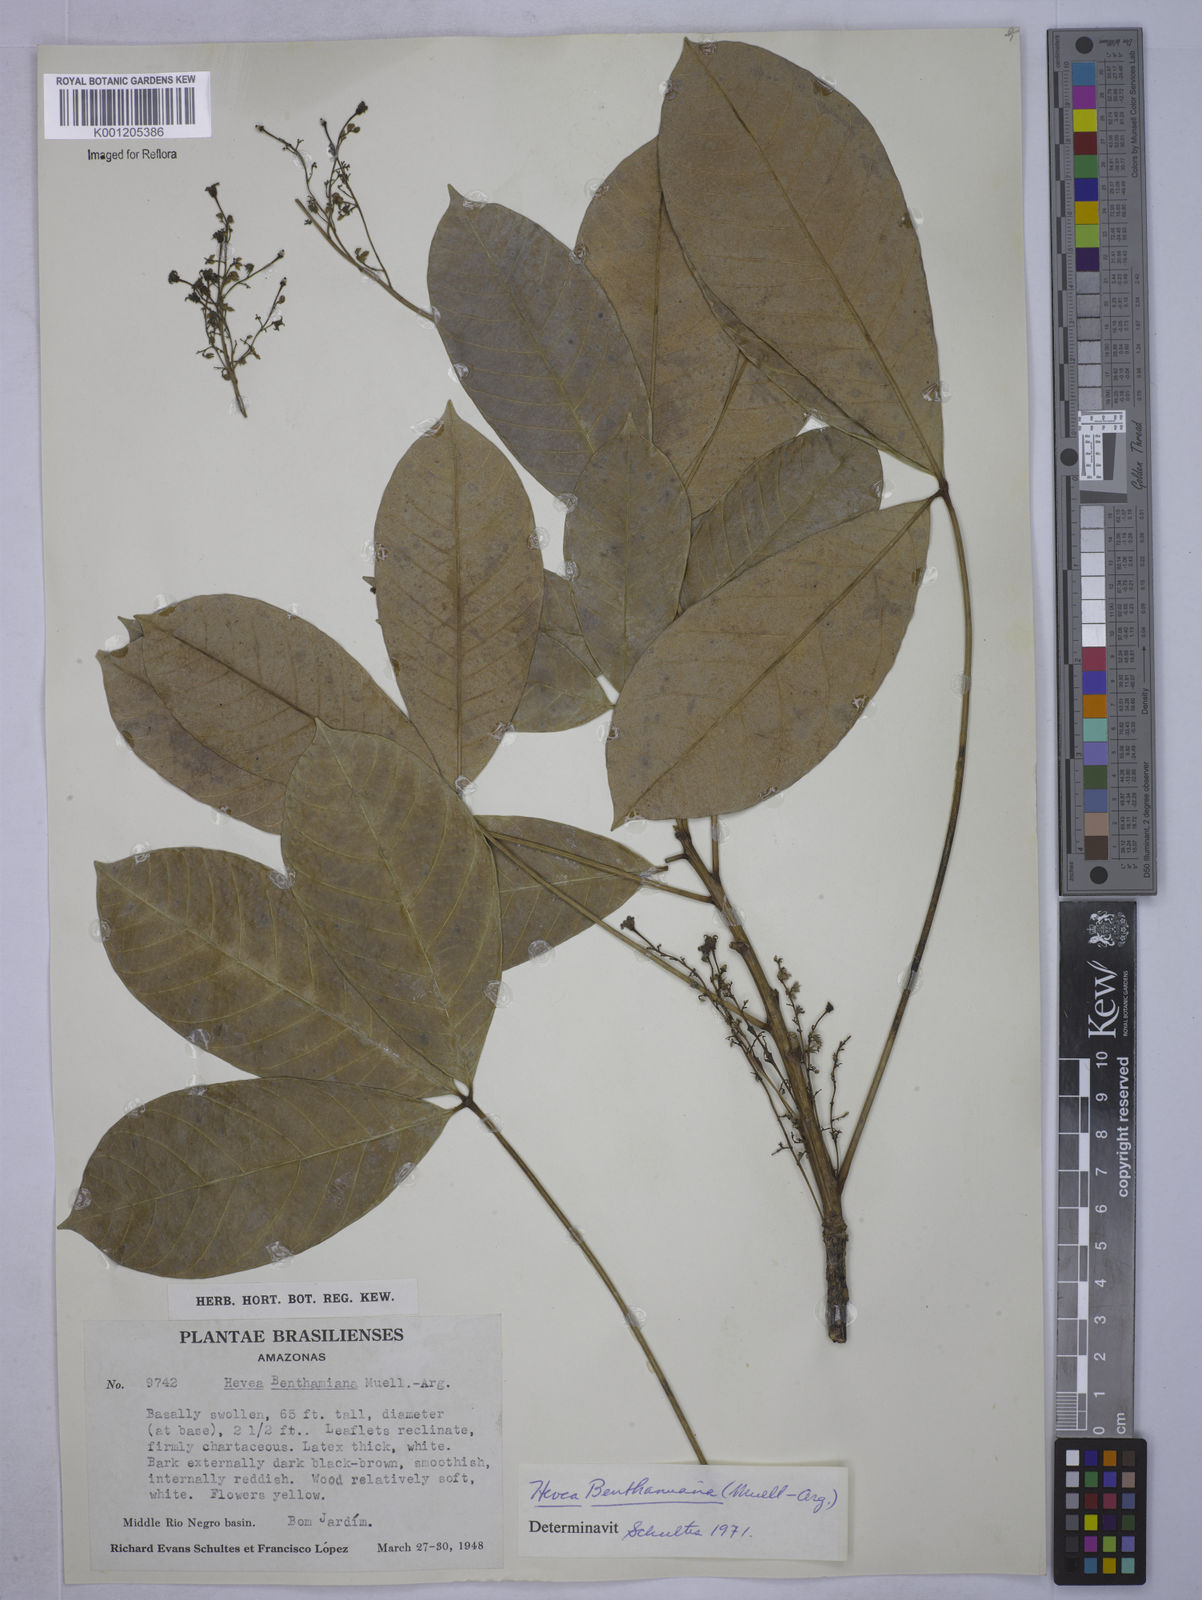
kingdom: Plantae
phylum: Tracheophyta
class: Magnoliopsida
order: Malpighiales
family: Euphorbiaceae
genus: Hevea
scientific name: Hevea
